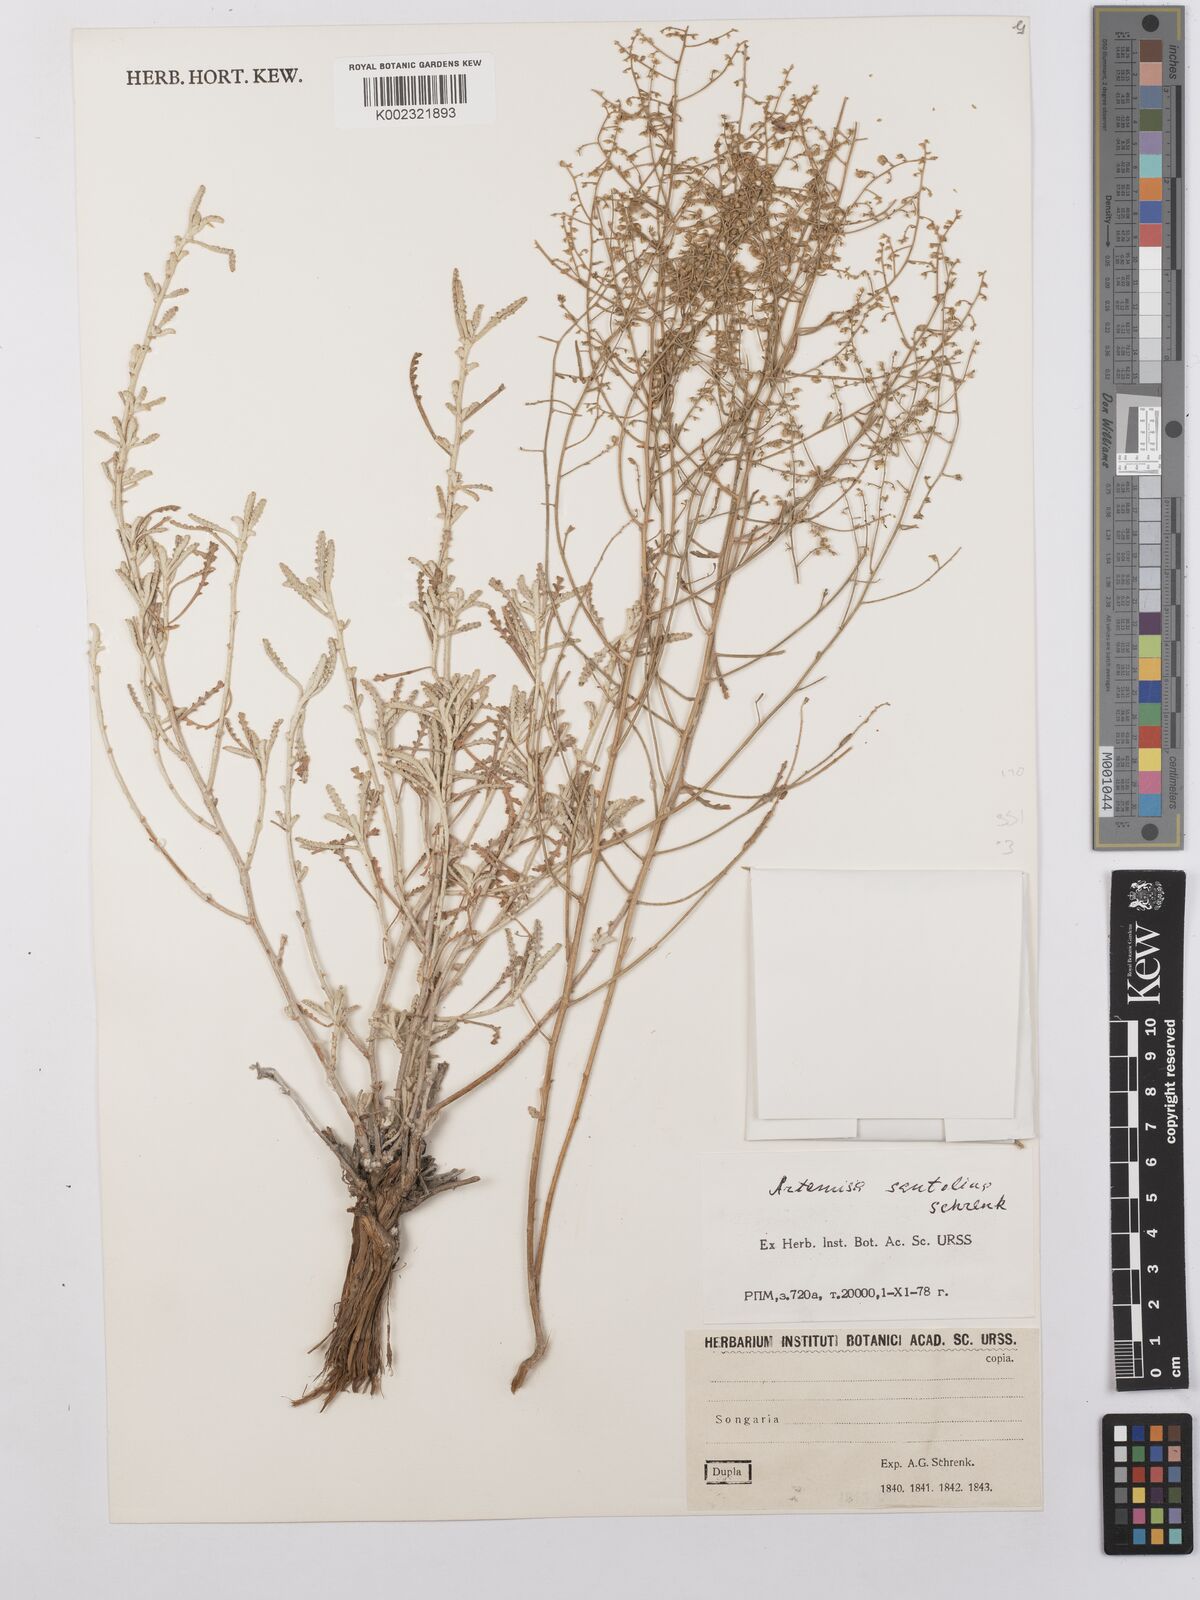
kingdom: Plantae
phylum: Tracheophyta
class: Magnoliopsida
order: Asterales
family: Asteraceae
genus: Artemisia
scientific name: Artemisia santolina
